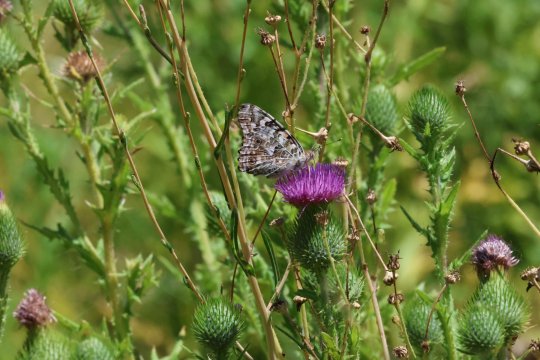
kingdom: Animalia
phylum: Arthropoda
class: Insecta
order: Lepidoptera
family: Nymphalidae
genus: Vanessa
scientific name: Vanessa cardui
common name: Painted Lady
